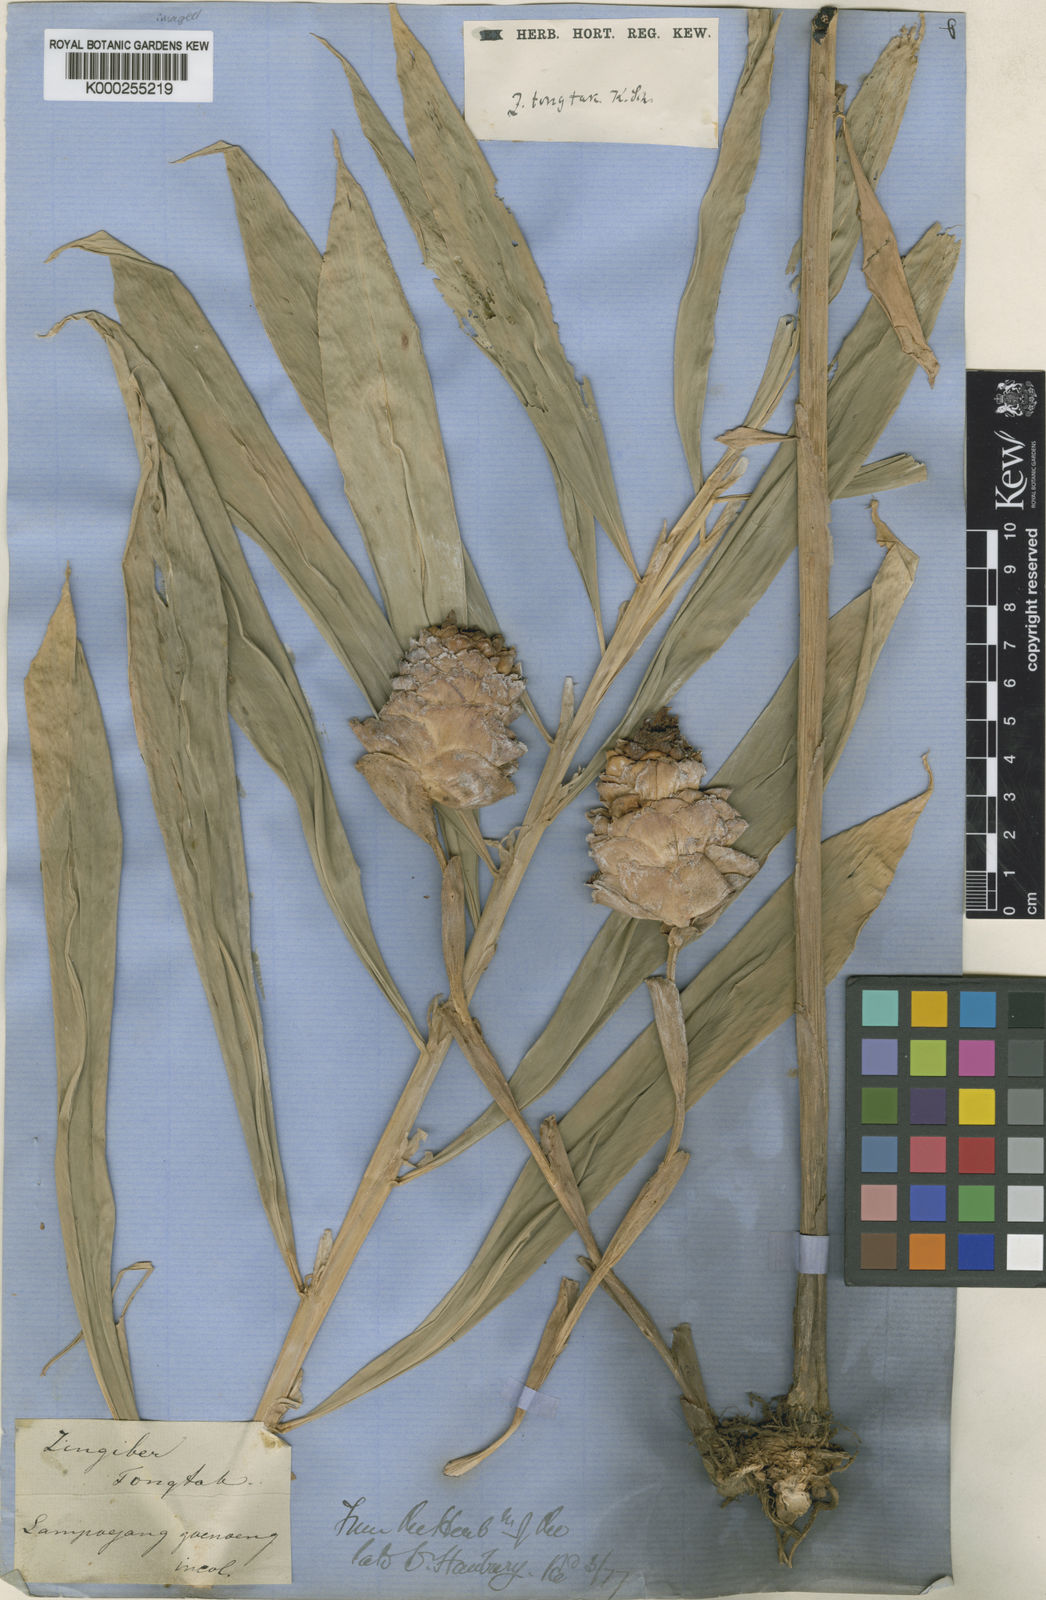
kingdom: Plantae
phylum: Tracheophyta
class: Liliopsida
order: Zingiberales
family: Zingiberaceae
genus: Zingiber
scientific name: Zingiber odoriferum
